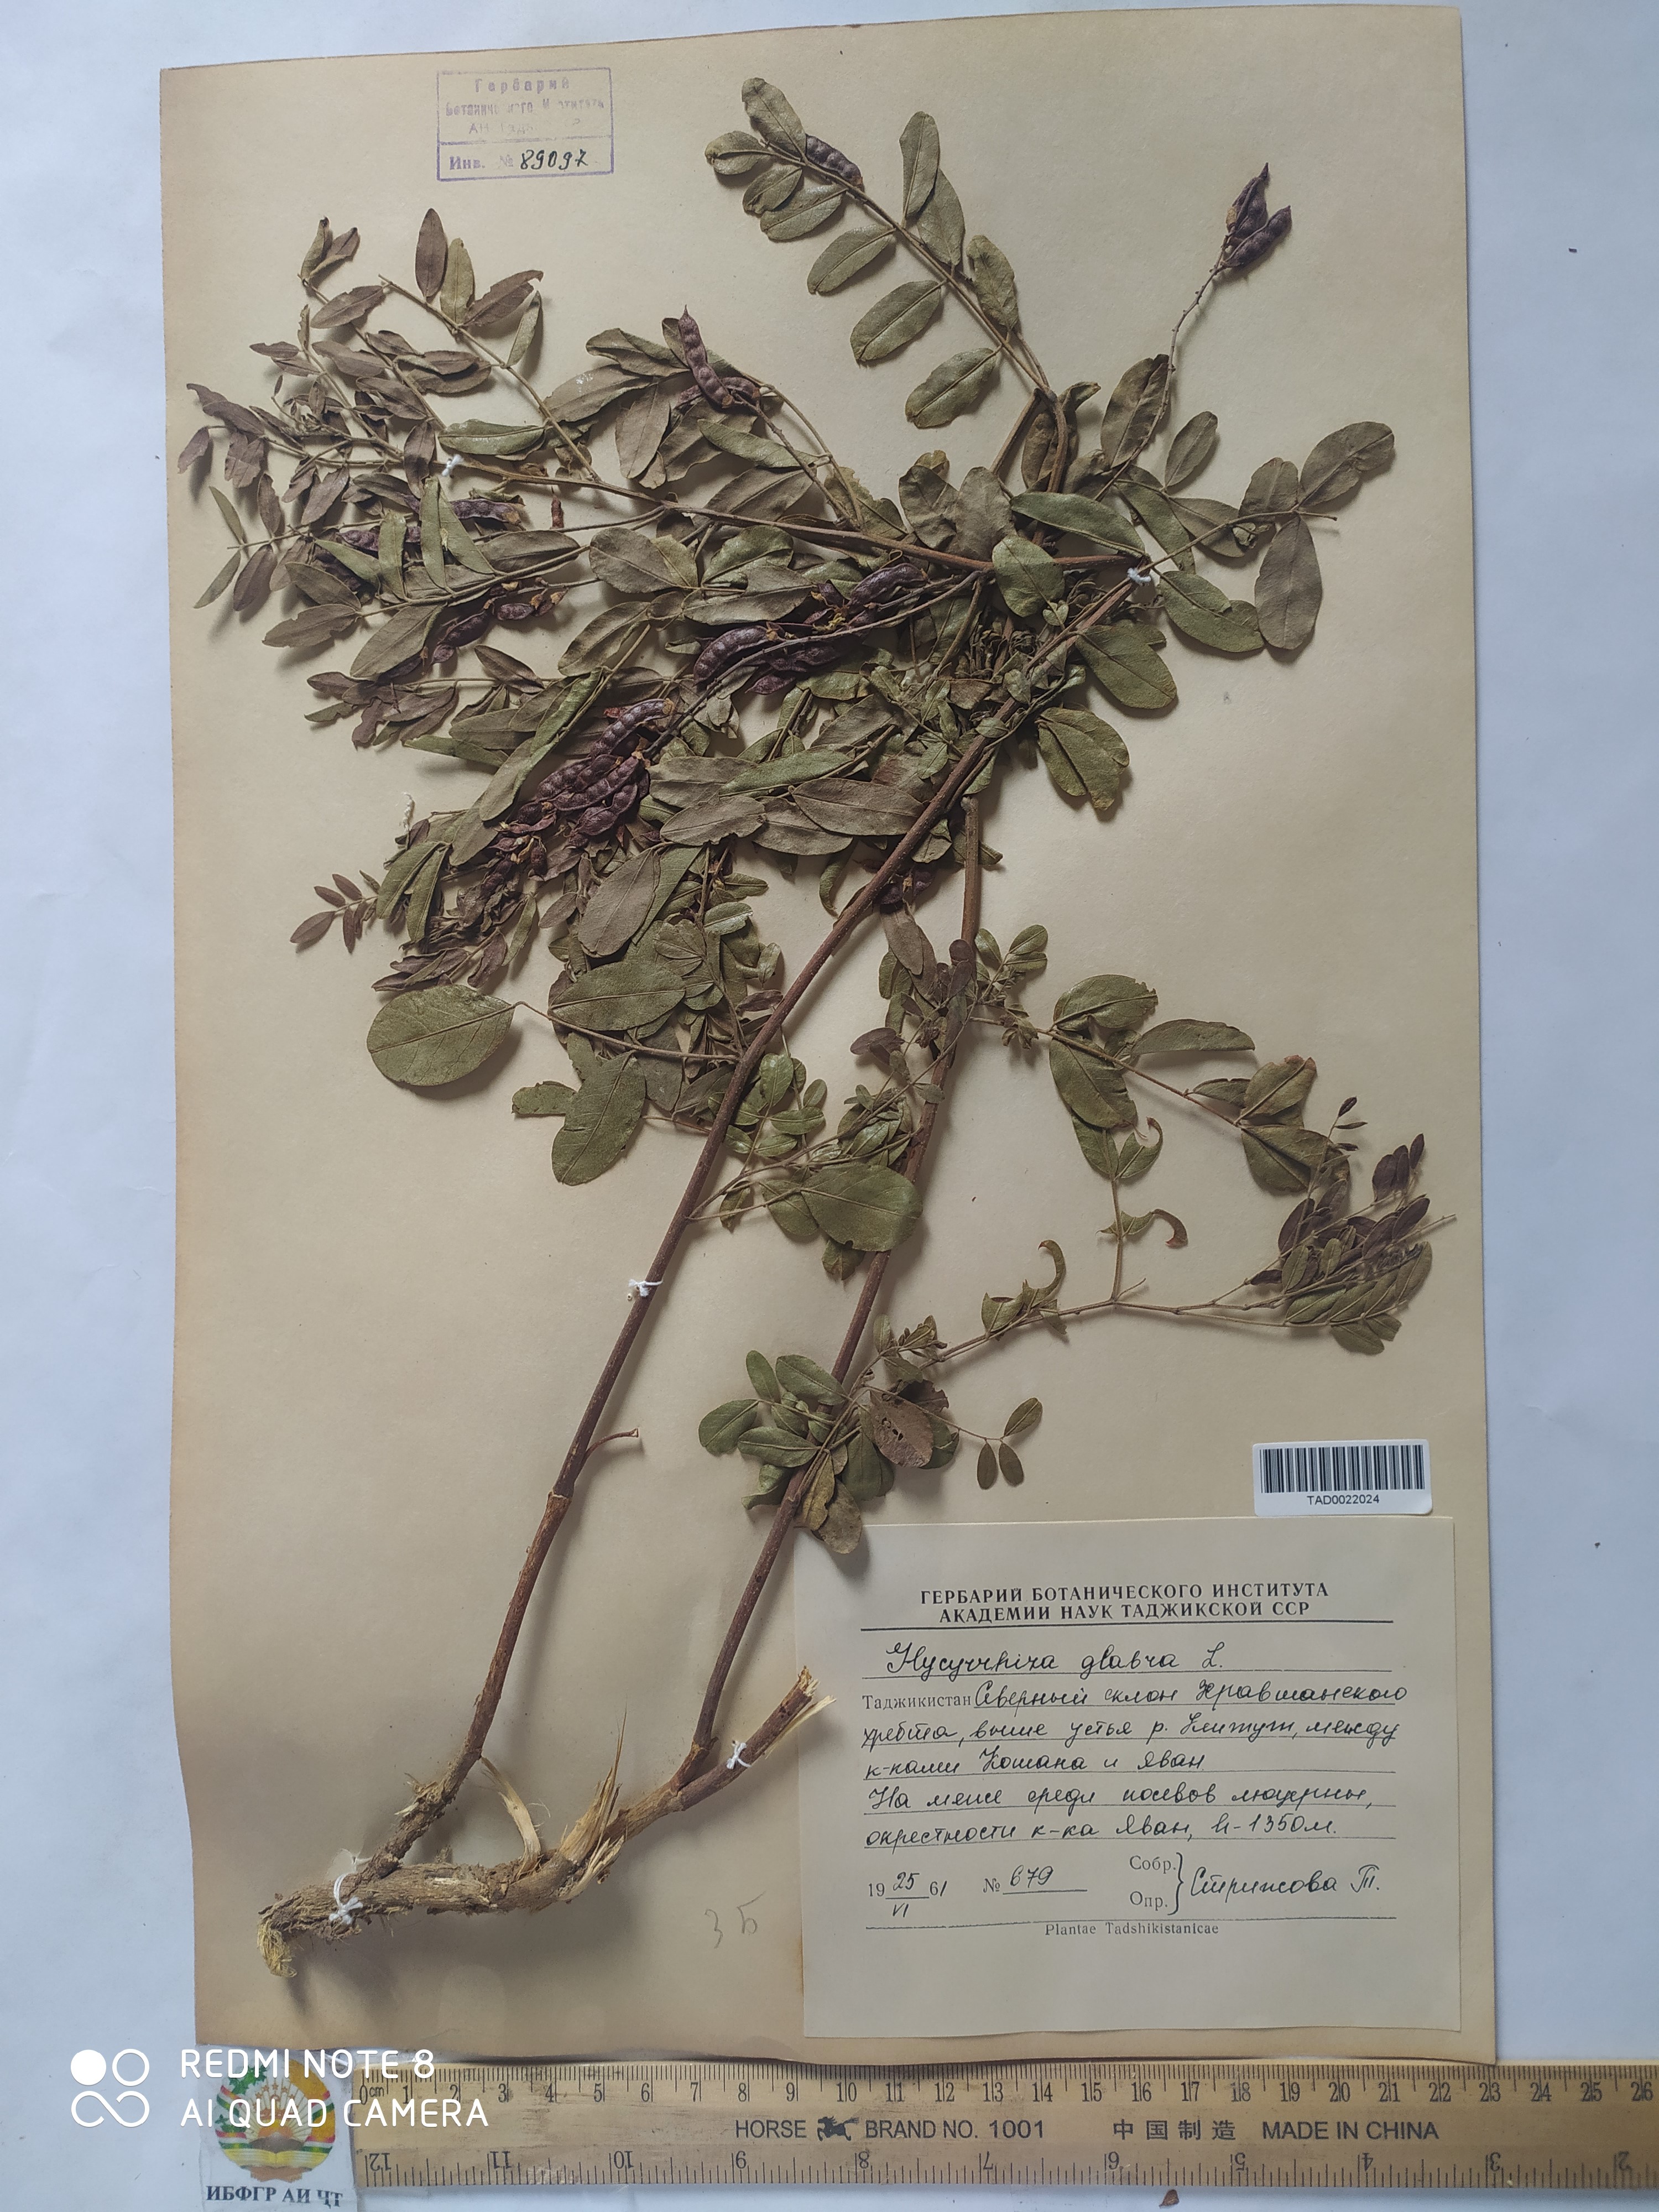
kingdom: Plantae
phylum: Tracheophyta
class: Magnoliopsida
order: Fabales
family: Fabaceae
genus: Glycyrrhiza
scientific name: Glycyrrhiza glabra
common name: Liquorice
